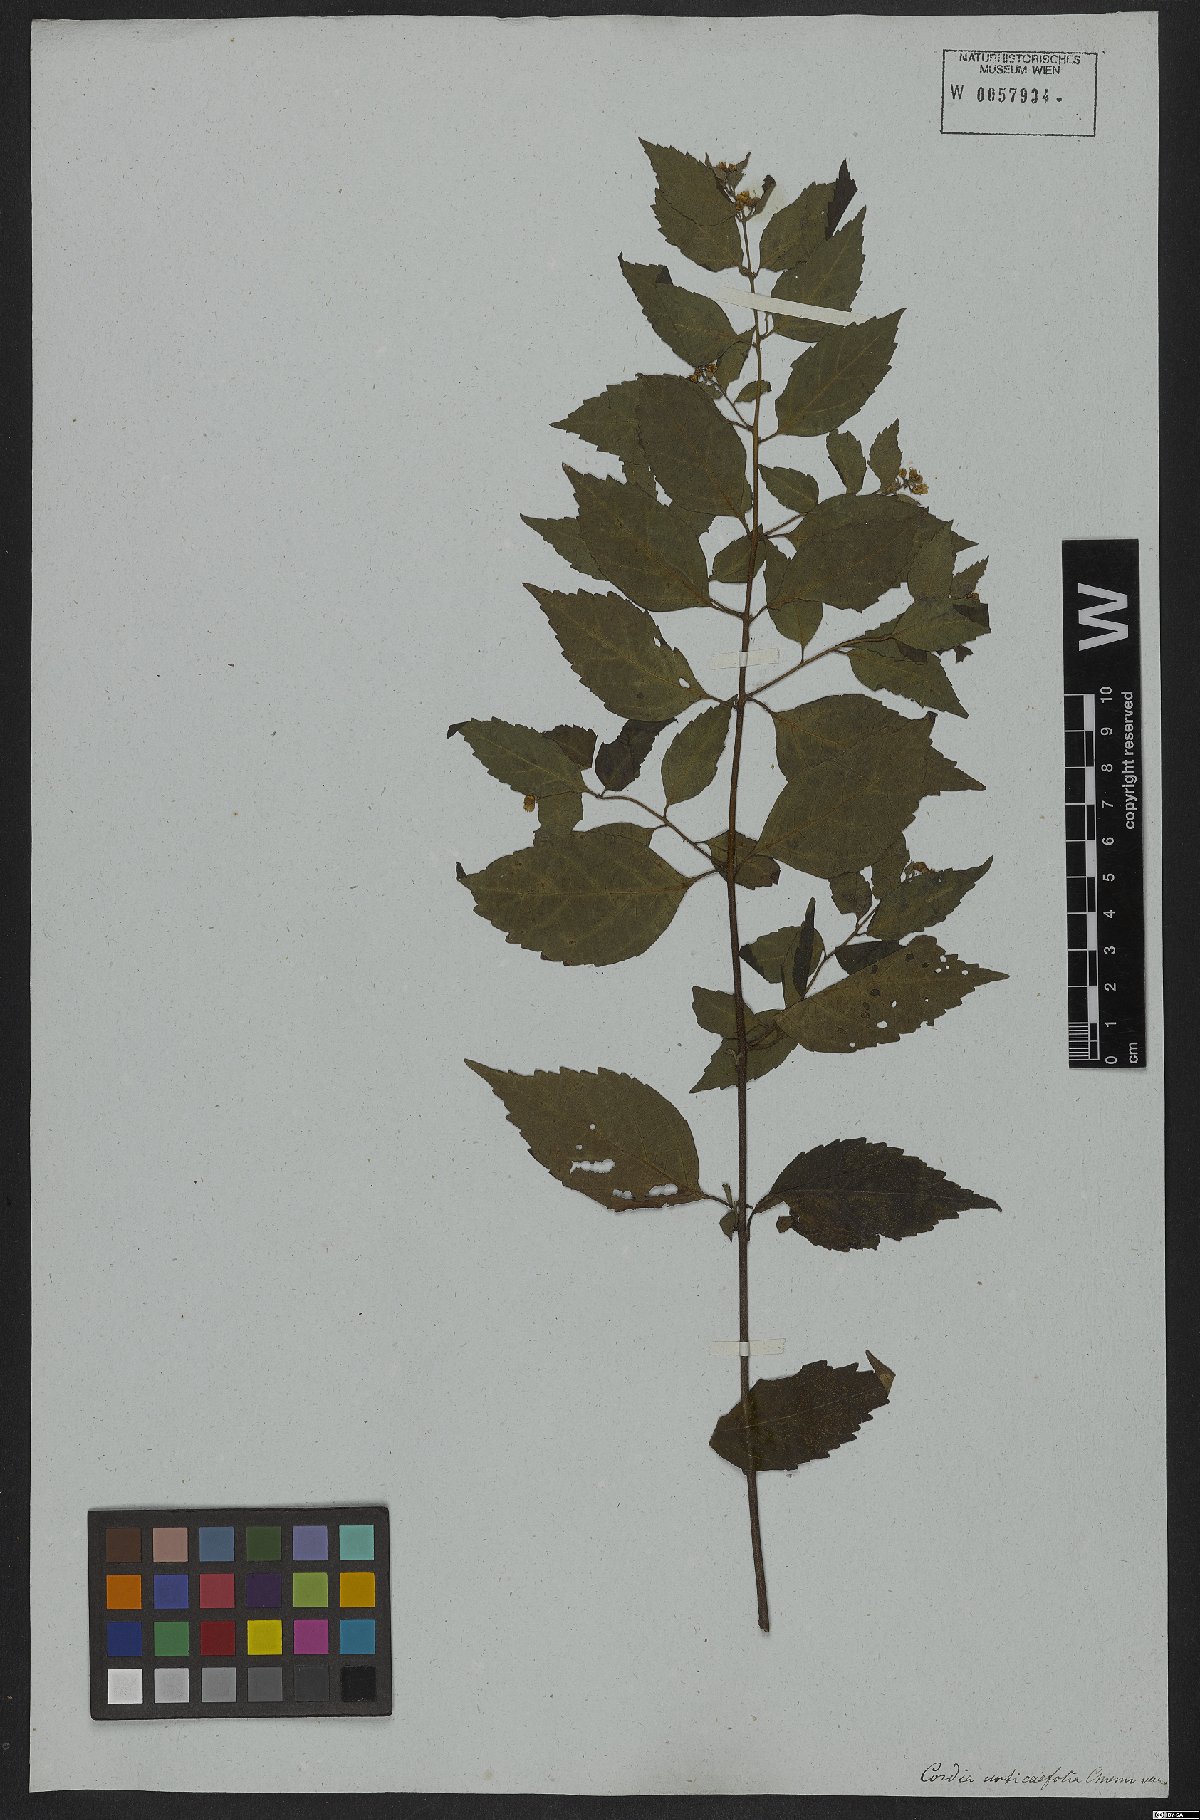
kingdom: Plantae
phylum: Tracheophyta
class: Magnoliopsida
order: Boraginales
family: Cordiaceae
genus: Varronia
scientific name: Varronia polycephala
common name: Black-sage
